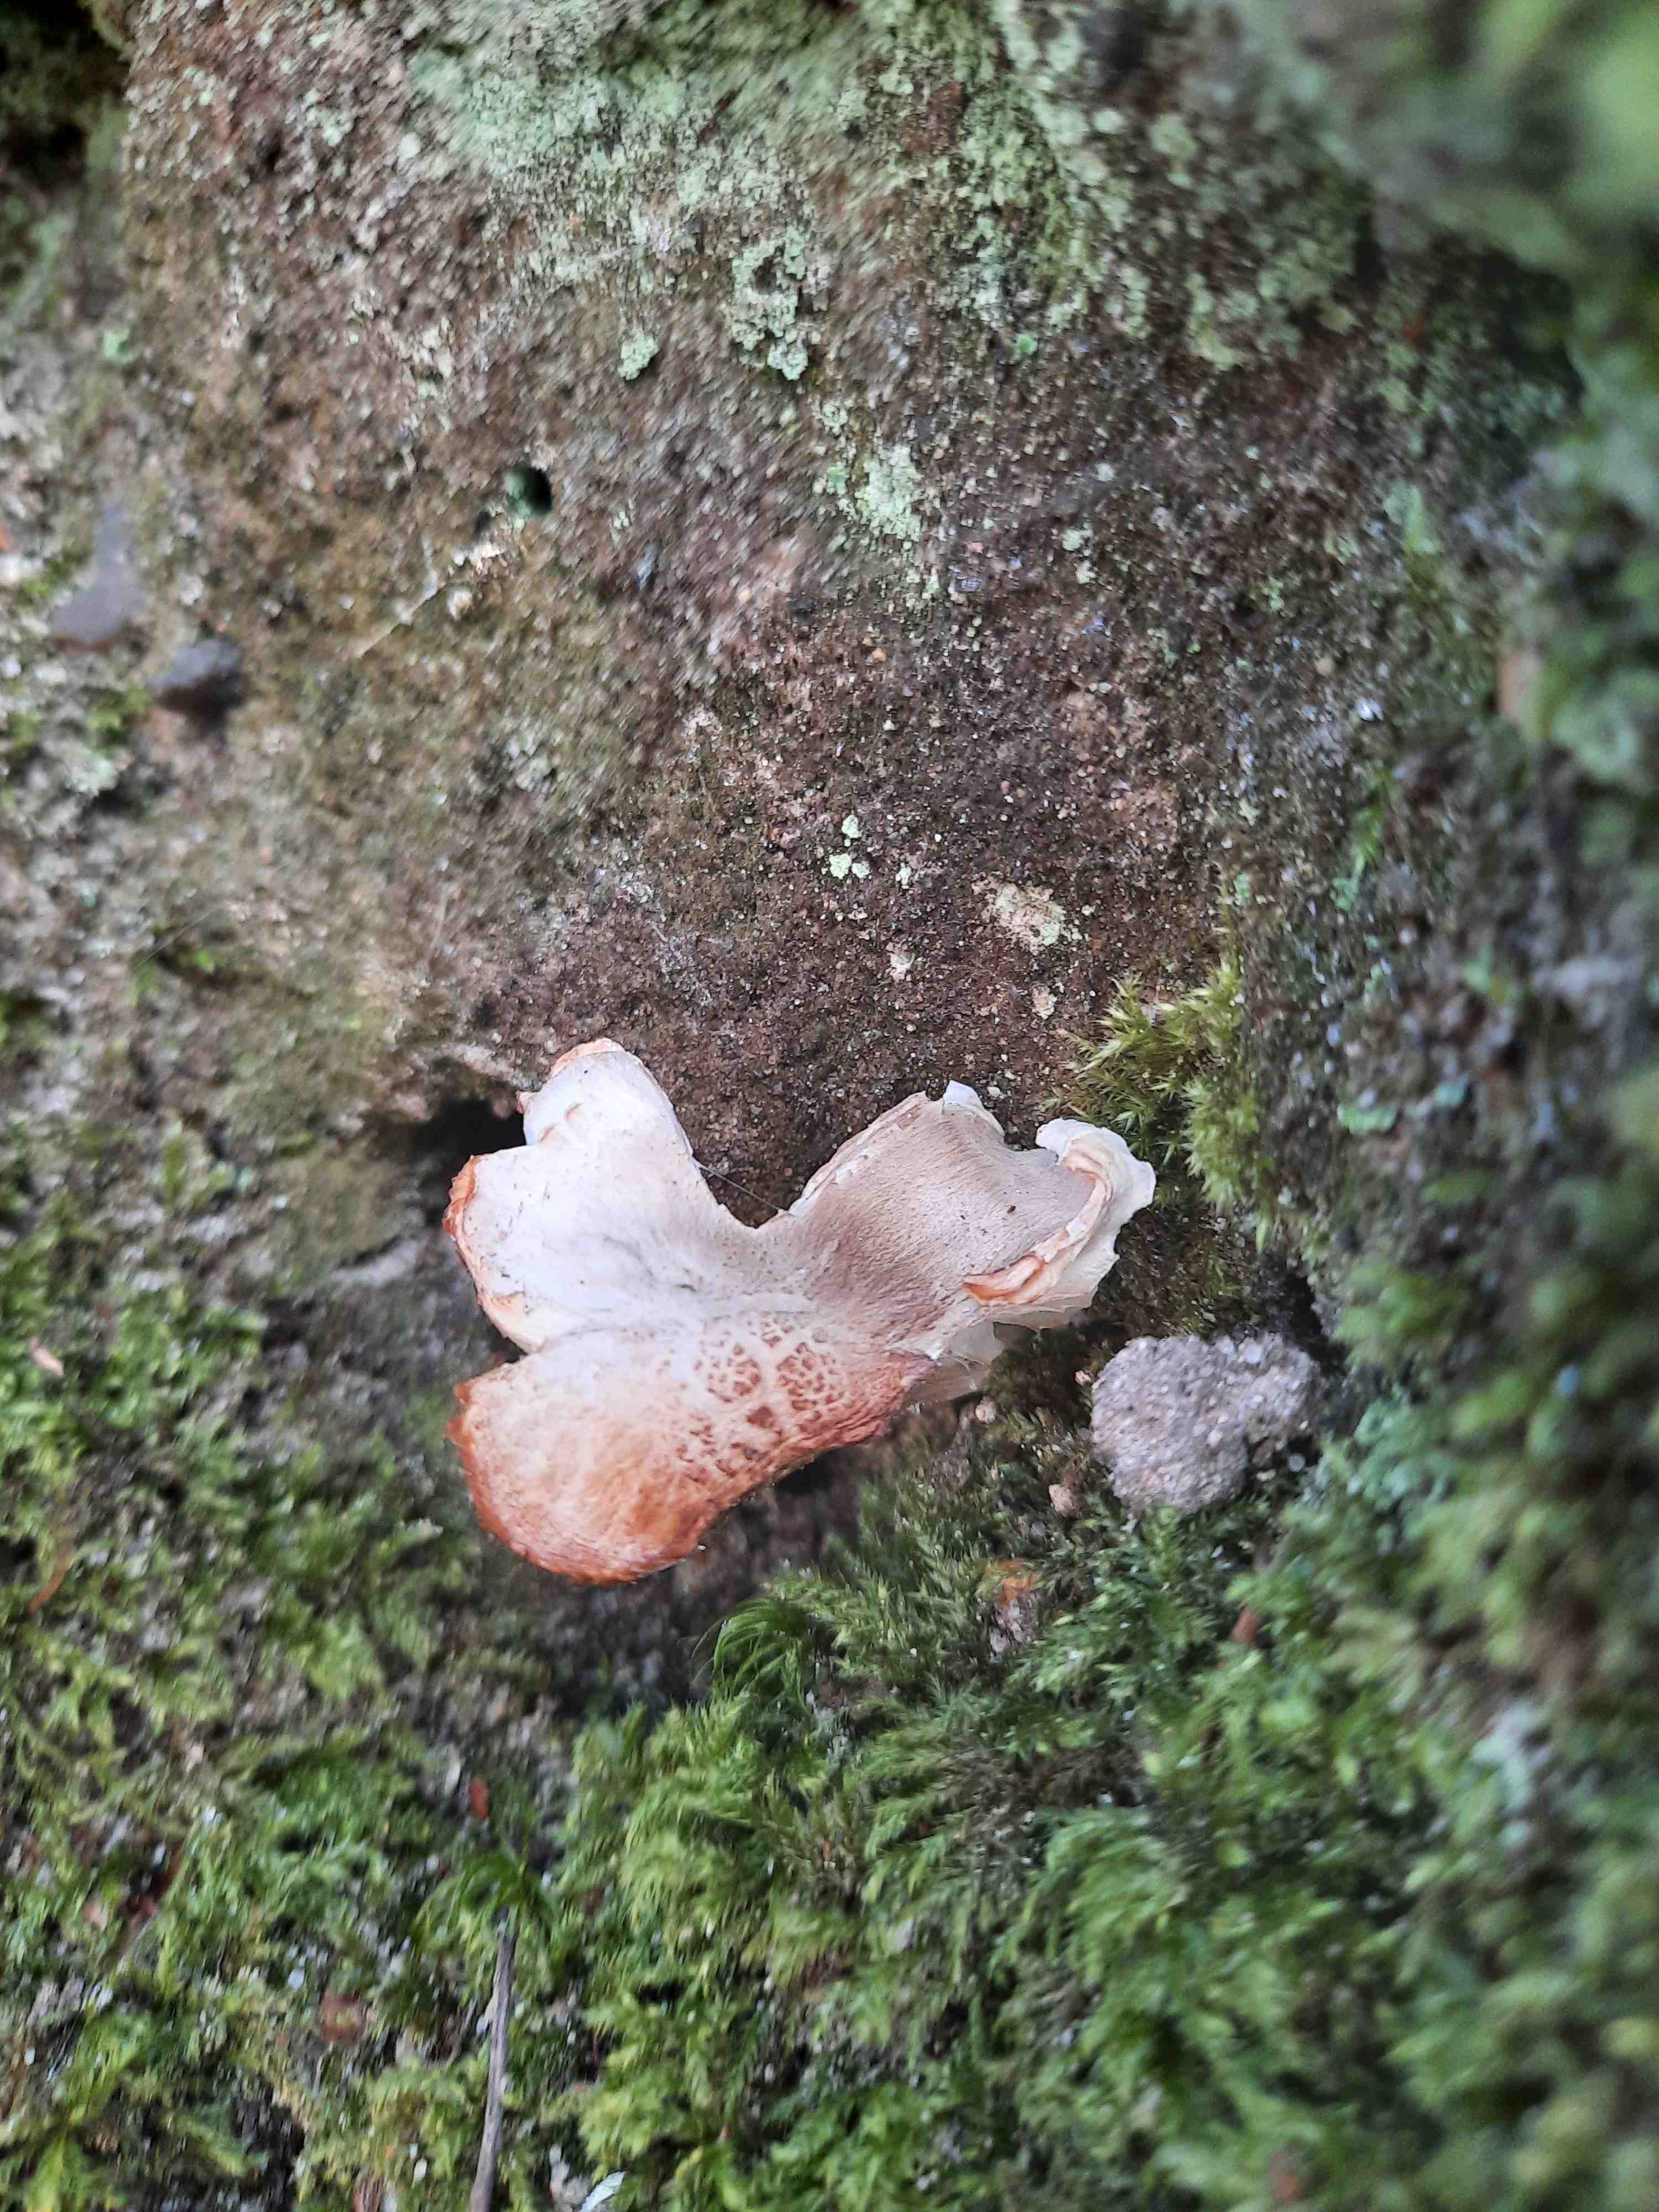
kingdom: Fungi
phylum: Basidiomycota
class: Agaricomycetes
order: Agaricales
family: Tricholomataceae
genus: Tricholoma
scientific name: Tricholoma saponaceum
